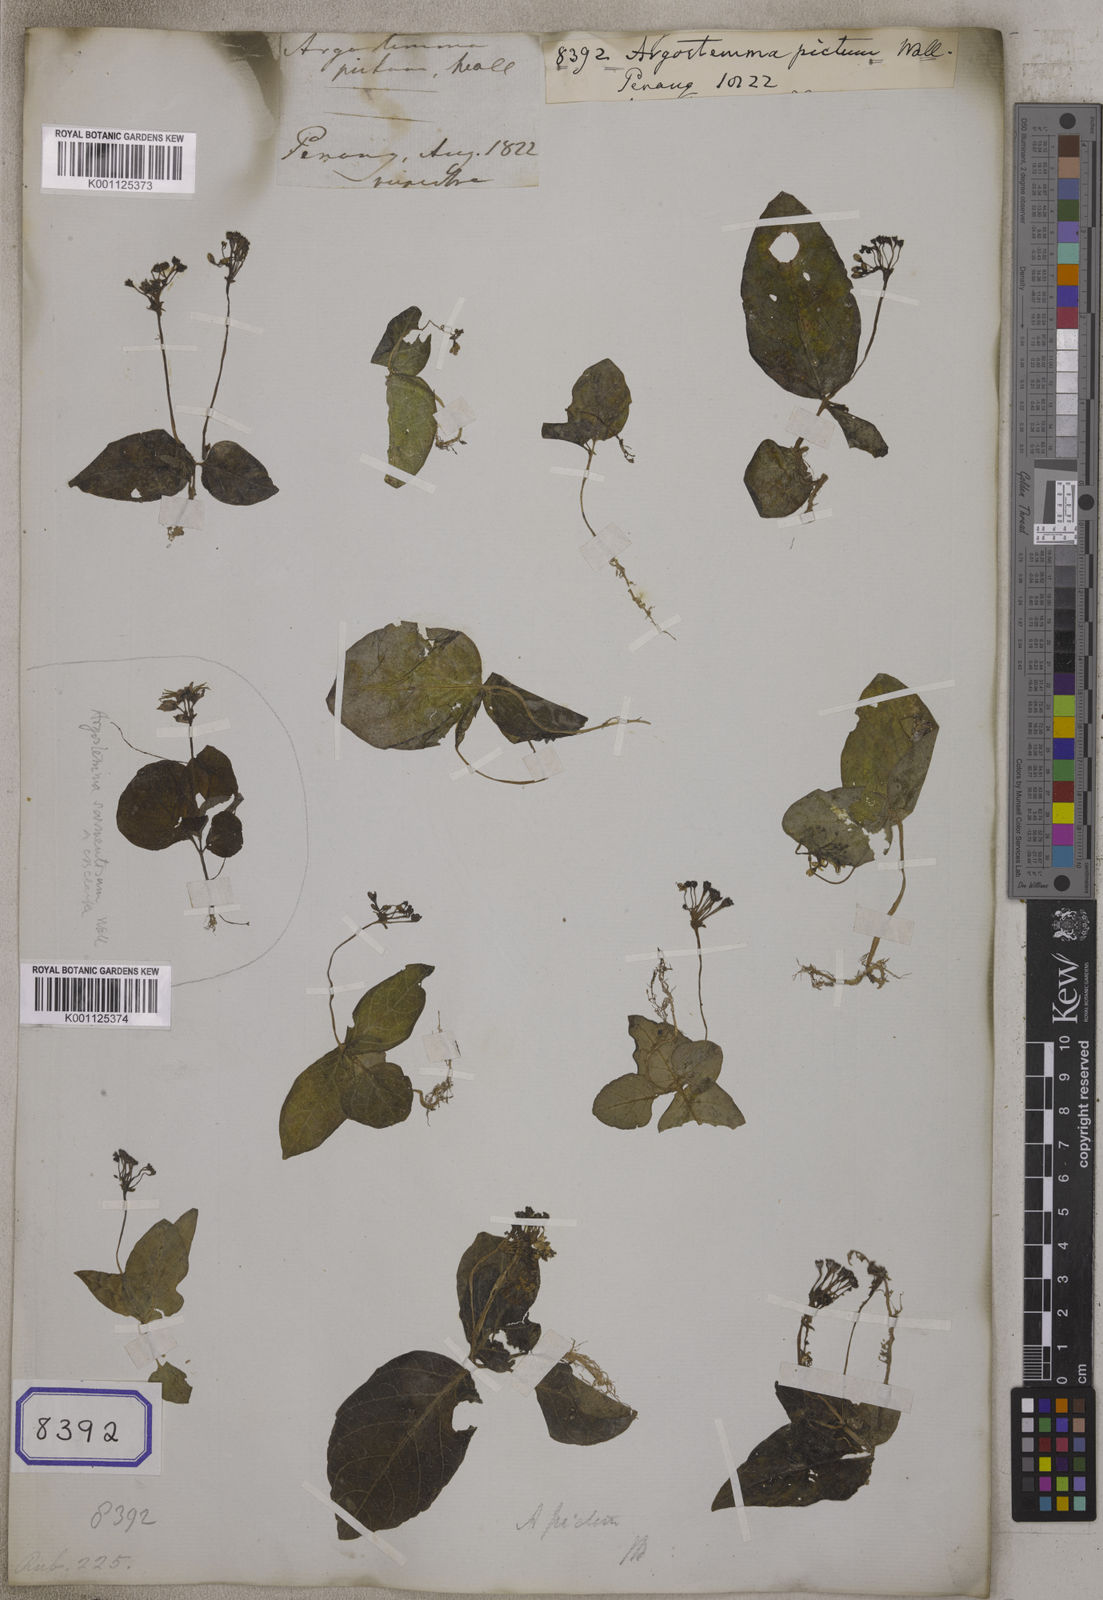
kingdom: Plantae
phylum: Tracheophyta
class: Magnoliopsida
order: Gentianales
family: Rubiaceae
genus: Argostemma
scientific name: Argostemma pictum
